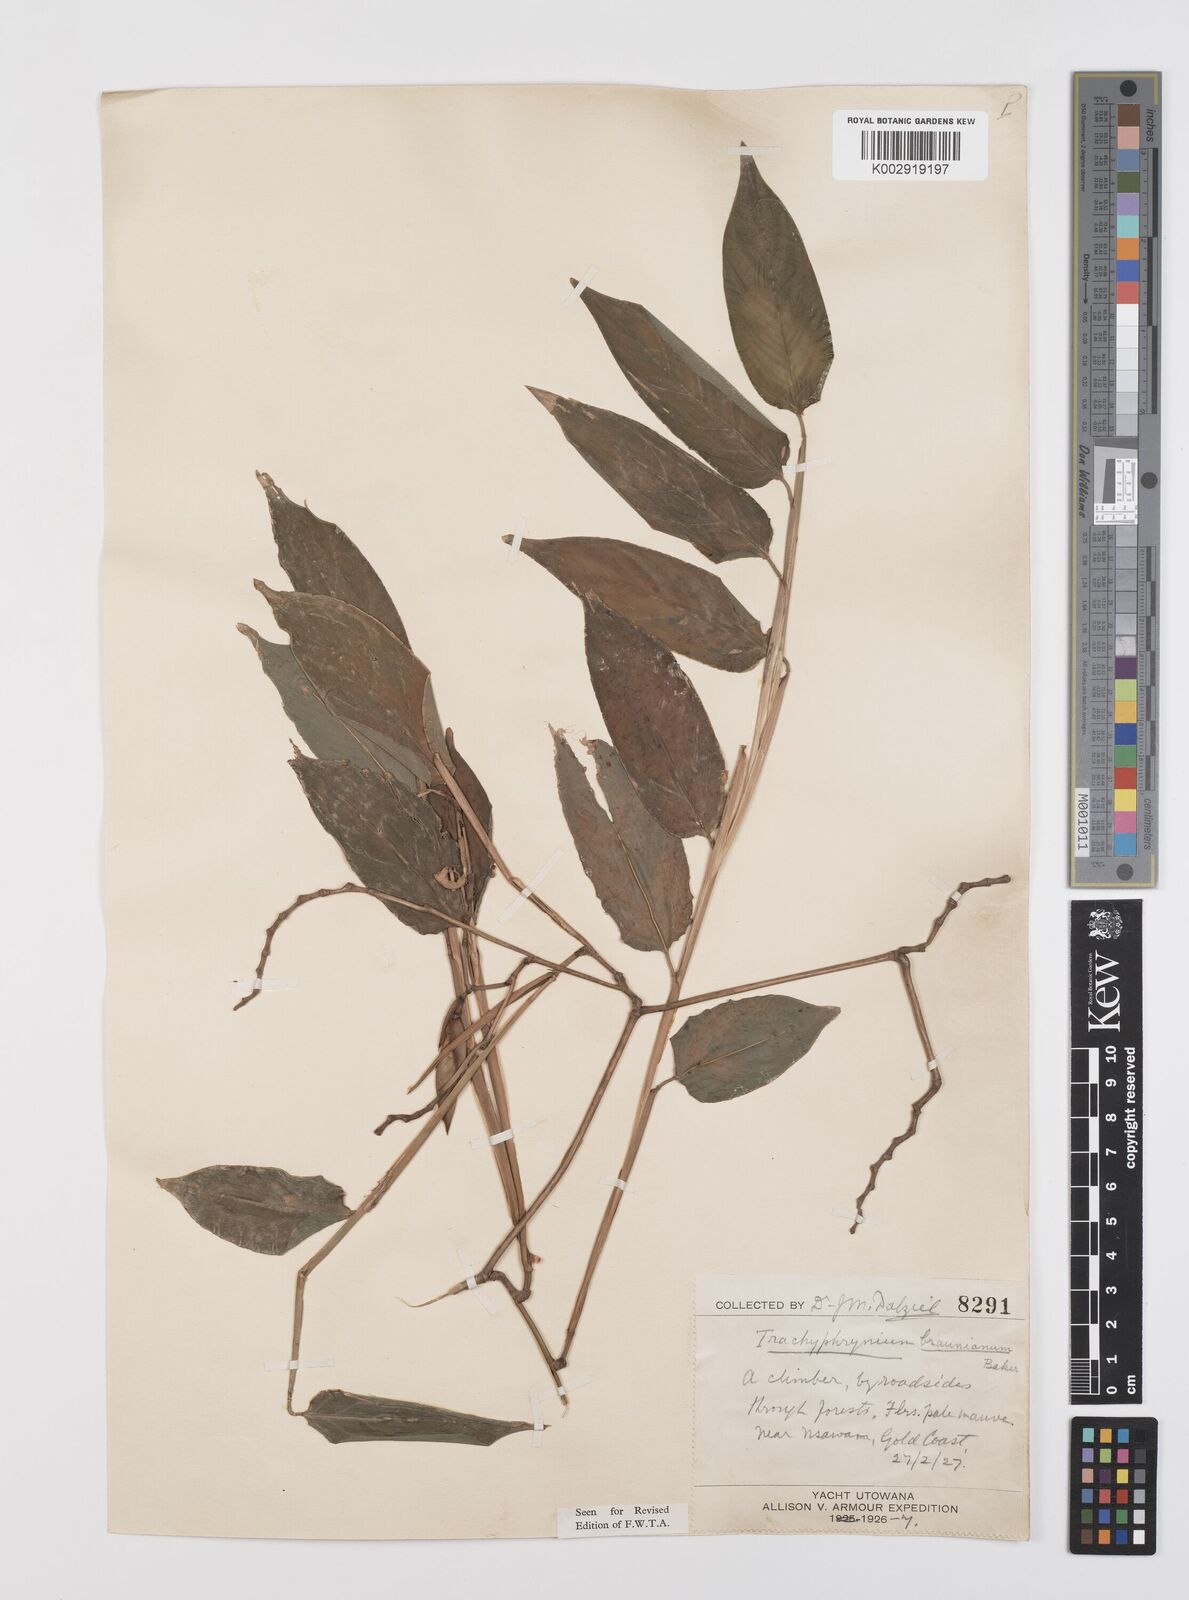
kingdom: Plantae
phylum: Tracheophyta
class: Liliopsida
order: Zingiberales
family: Marantaceae
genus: Hypselodelphys
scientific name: Hypselodelphys poggeana
